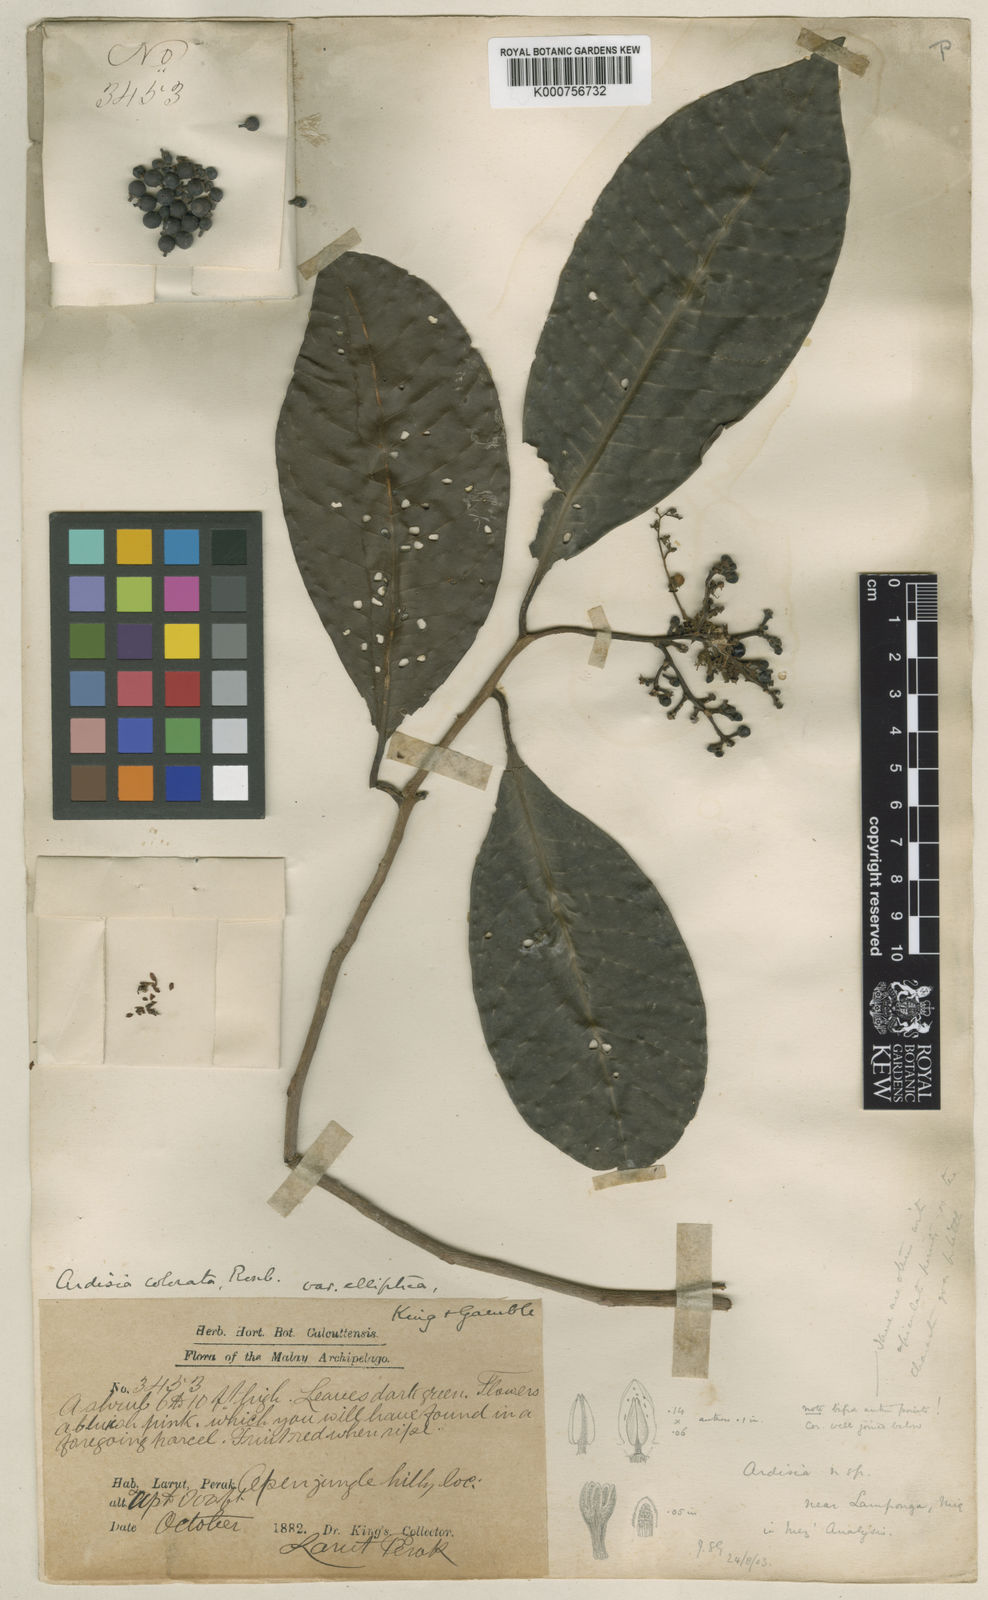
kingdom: Plantae
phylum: Tracheophyta
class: Magnoliopsida
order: Ericales
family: Primulaceae
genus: Ardisia
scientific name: Ardisia complanata
